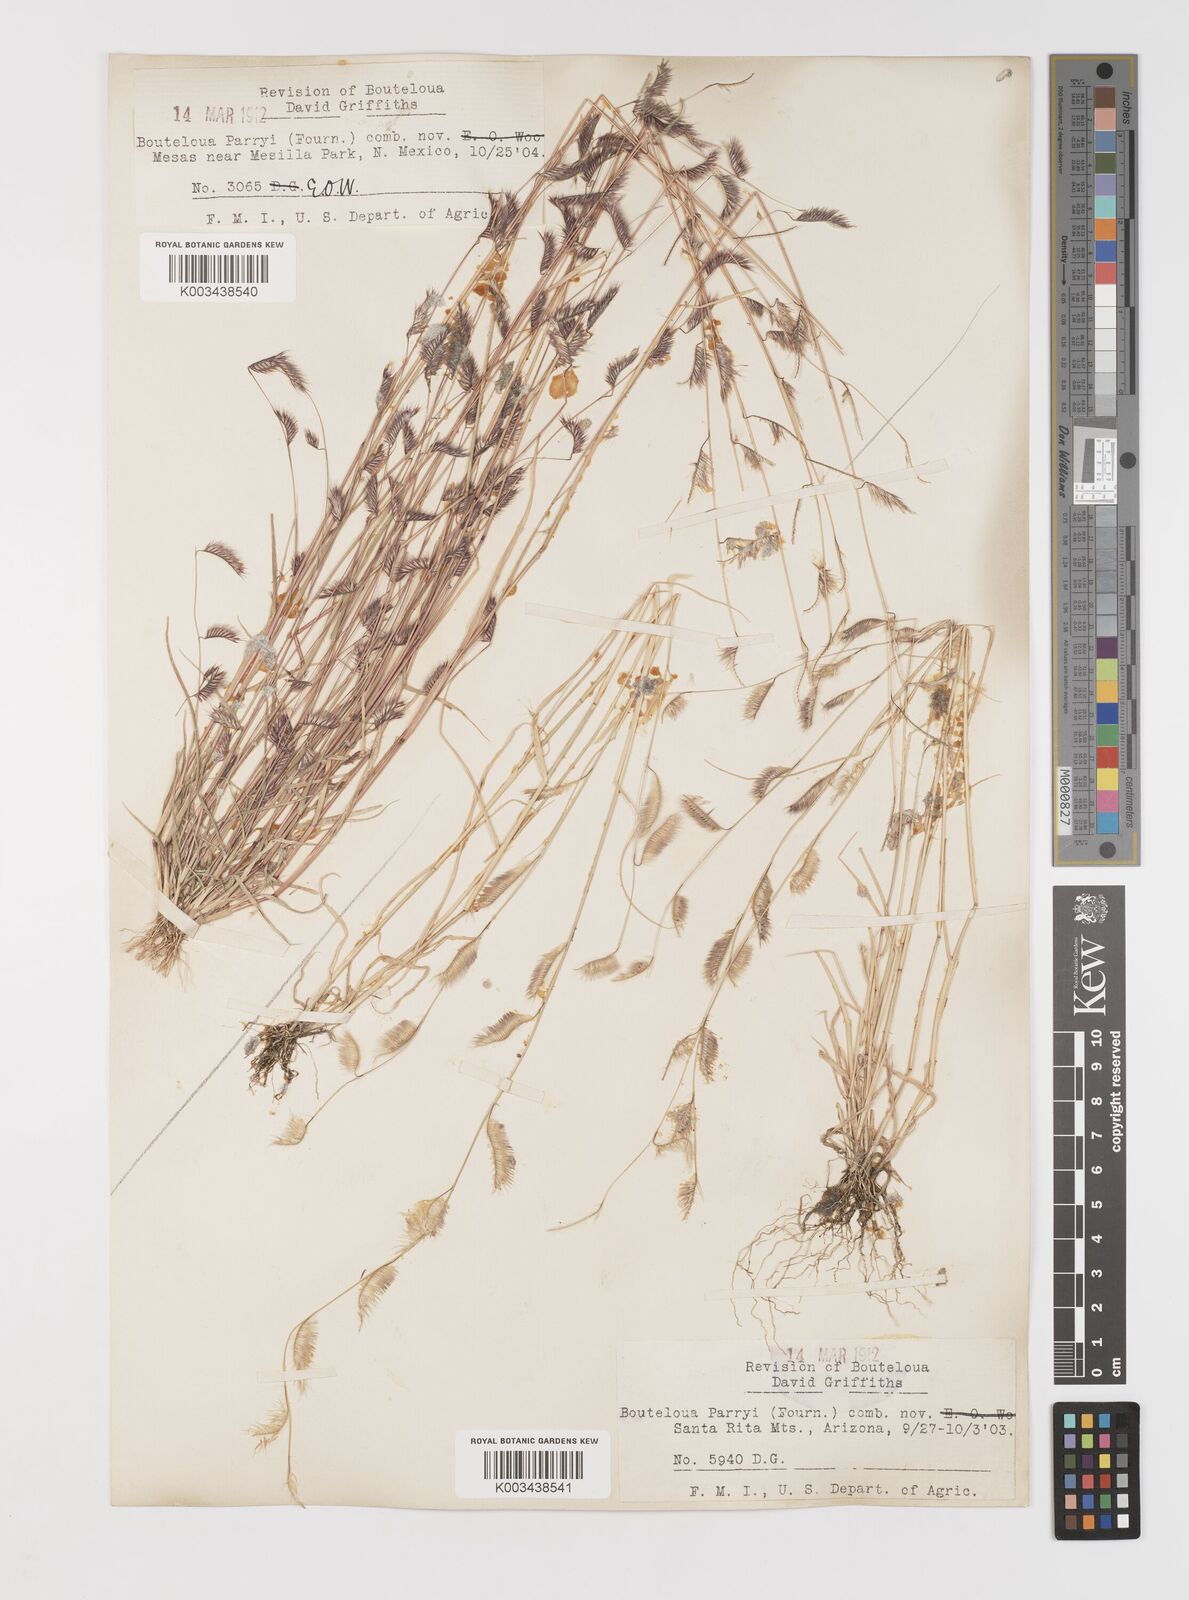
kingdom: Plantae
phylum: Tracheophyta
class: Liliopsida
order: Poales
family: Poaceae
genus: Bouteloua
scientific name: Bouteloua parryi
